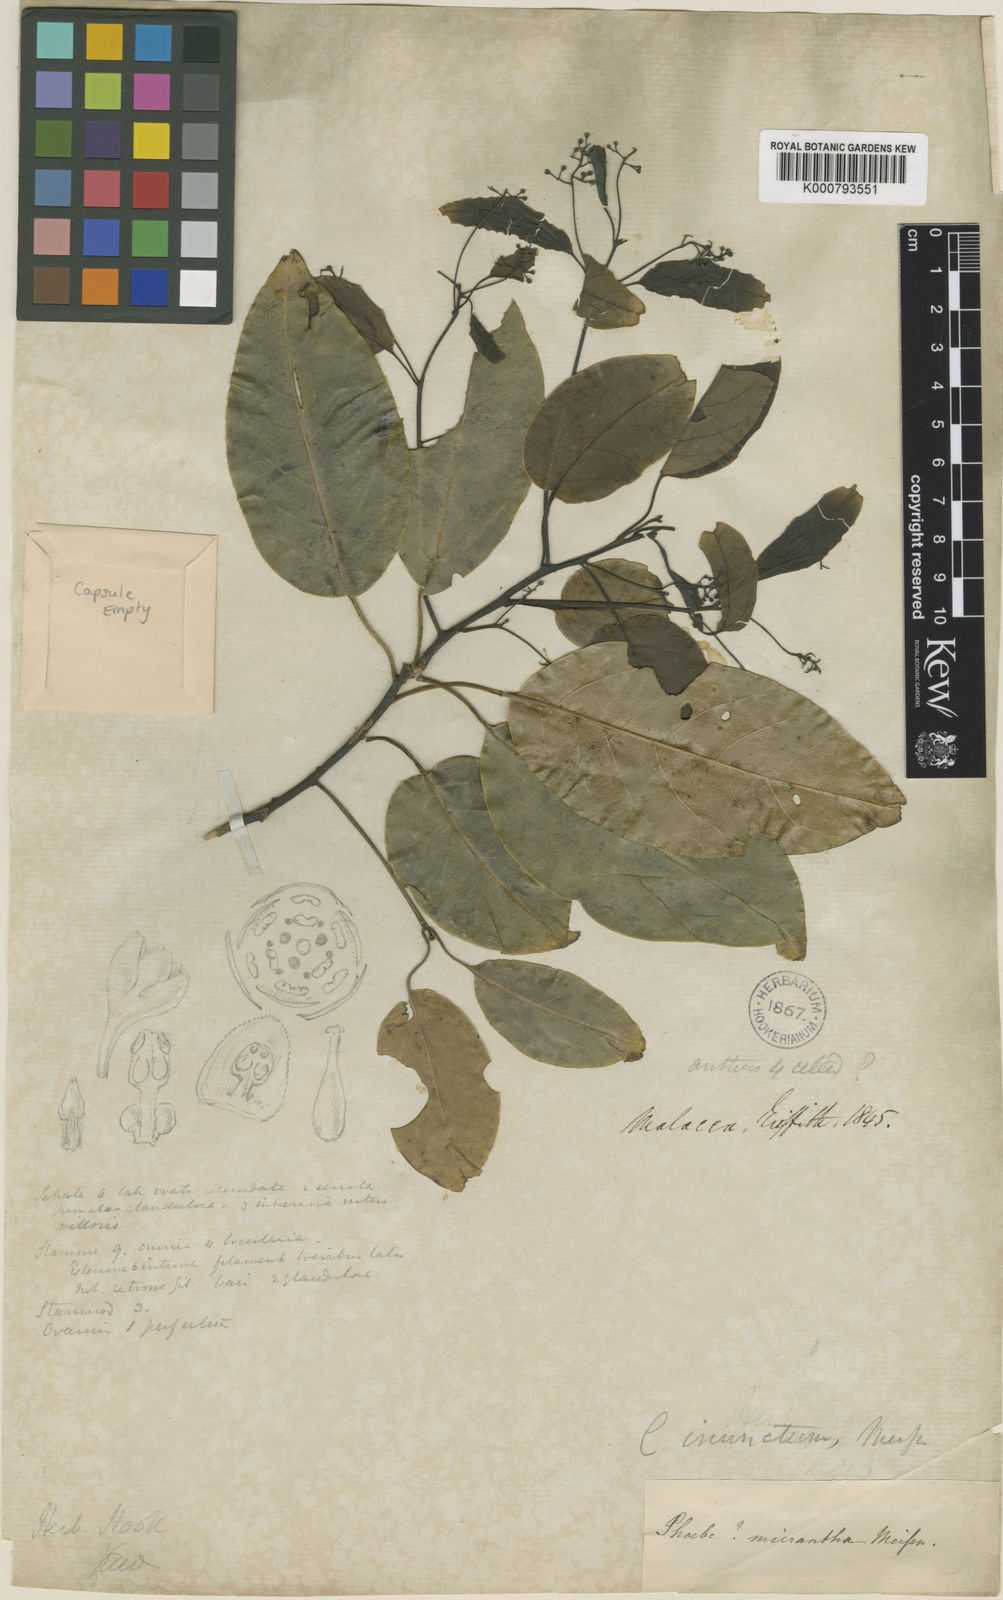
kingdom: Plantae
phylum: Tracheophyta
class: Magnoliopsida
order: Laurales
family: Lauraceae
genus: Cinnamomum
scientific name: Cinnamomum
